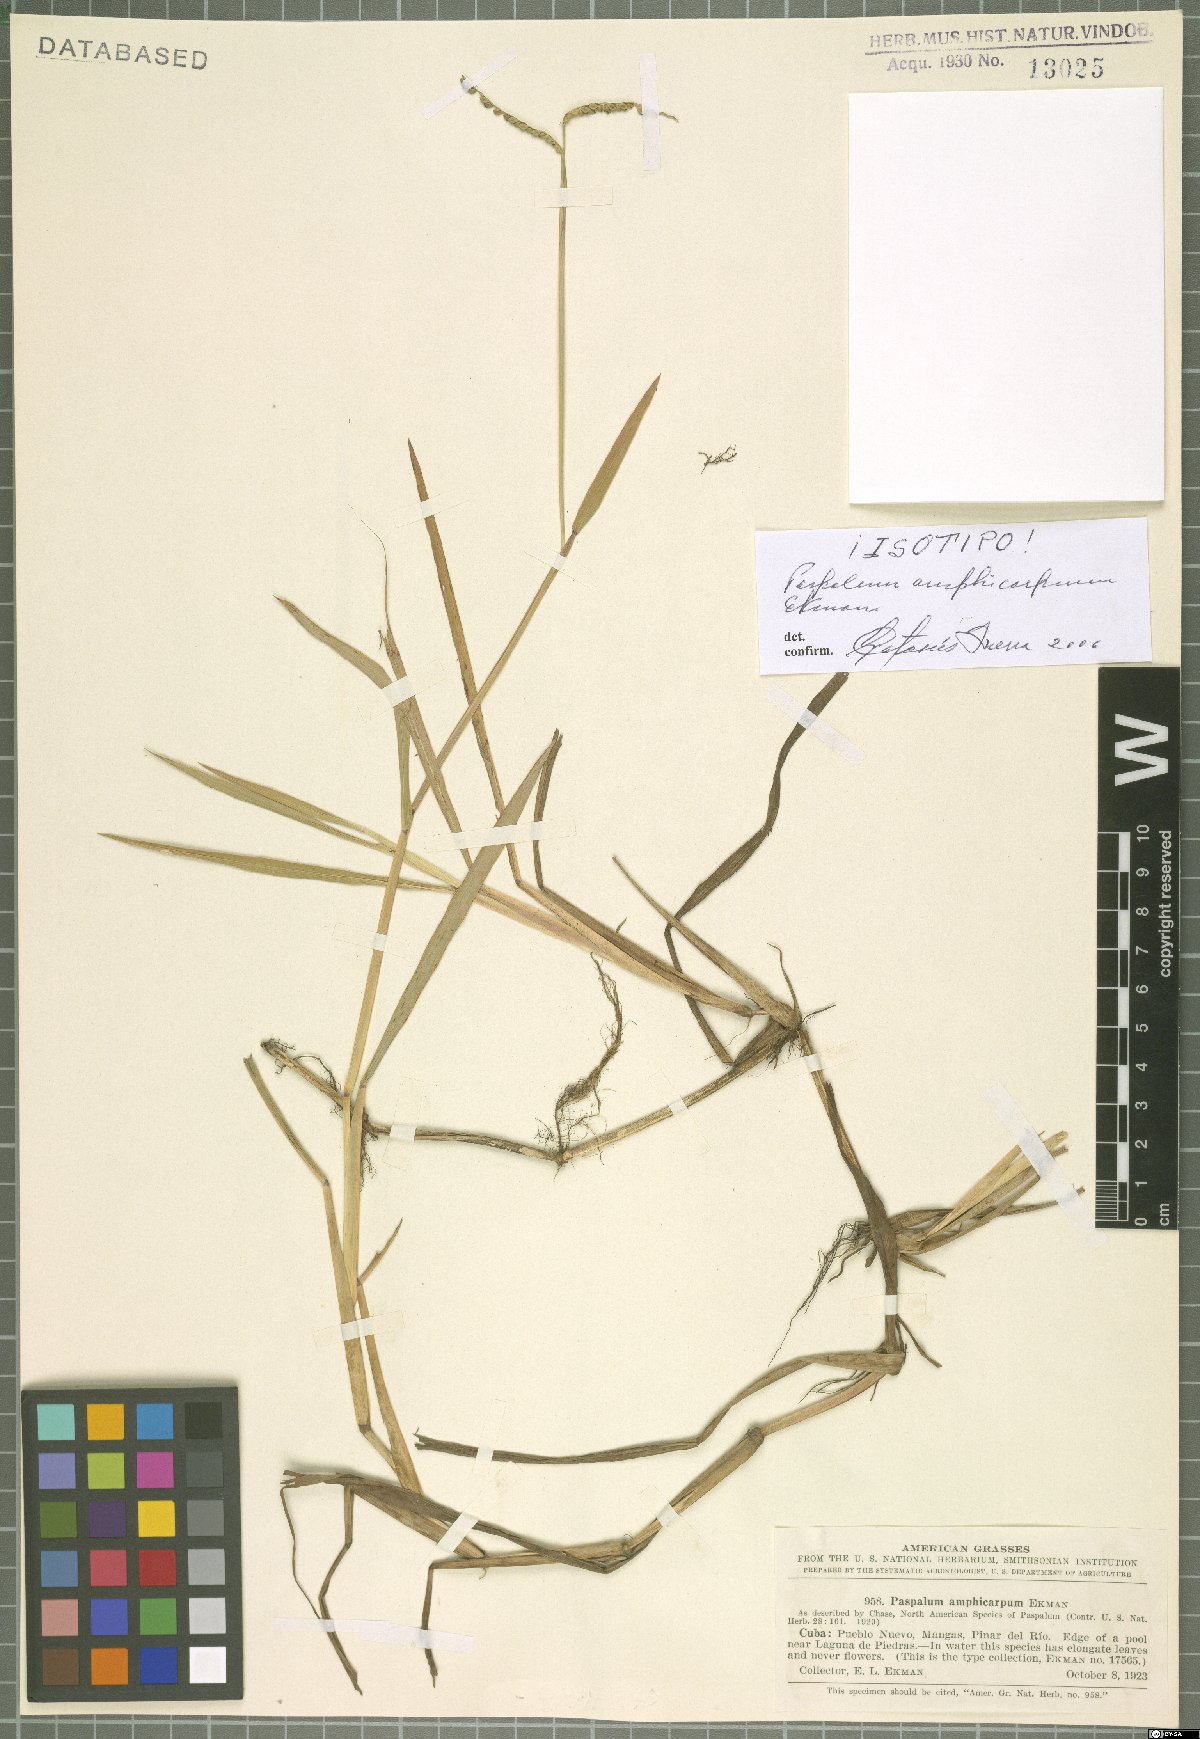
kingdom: Plantae
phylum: Tracheophyta
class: Liliopsida
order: Poales
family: Poaceae
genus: Paspalum
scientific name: Paspalum amphicarpum
